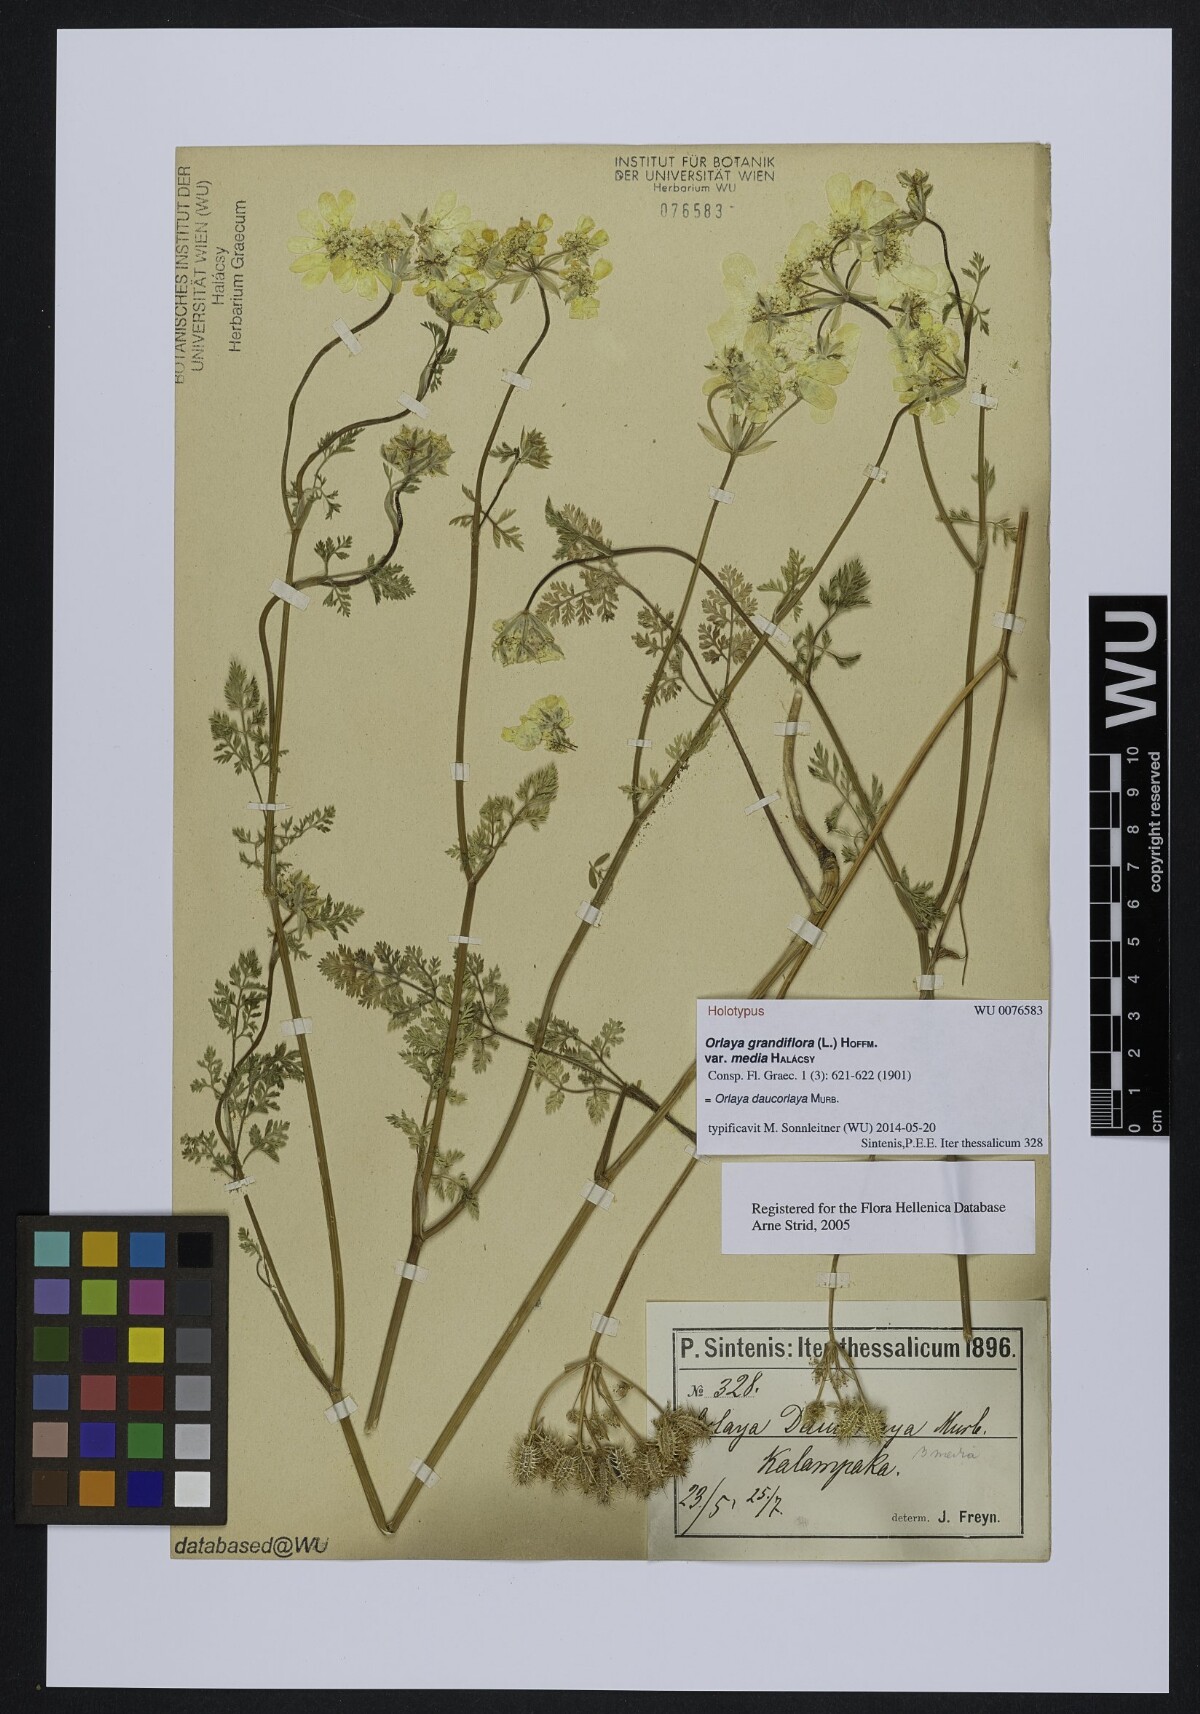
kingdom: Plantae
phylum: Tracheophyta
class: Magnoliopsida
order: Apiales
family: Apiaceae
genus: Orlaya
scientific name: Orlaya grandiflora
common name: White lace flower
